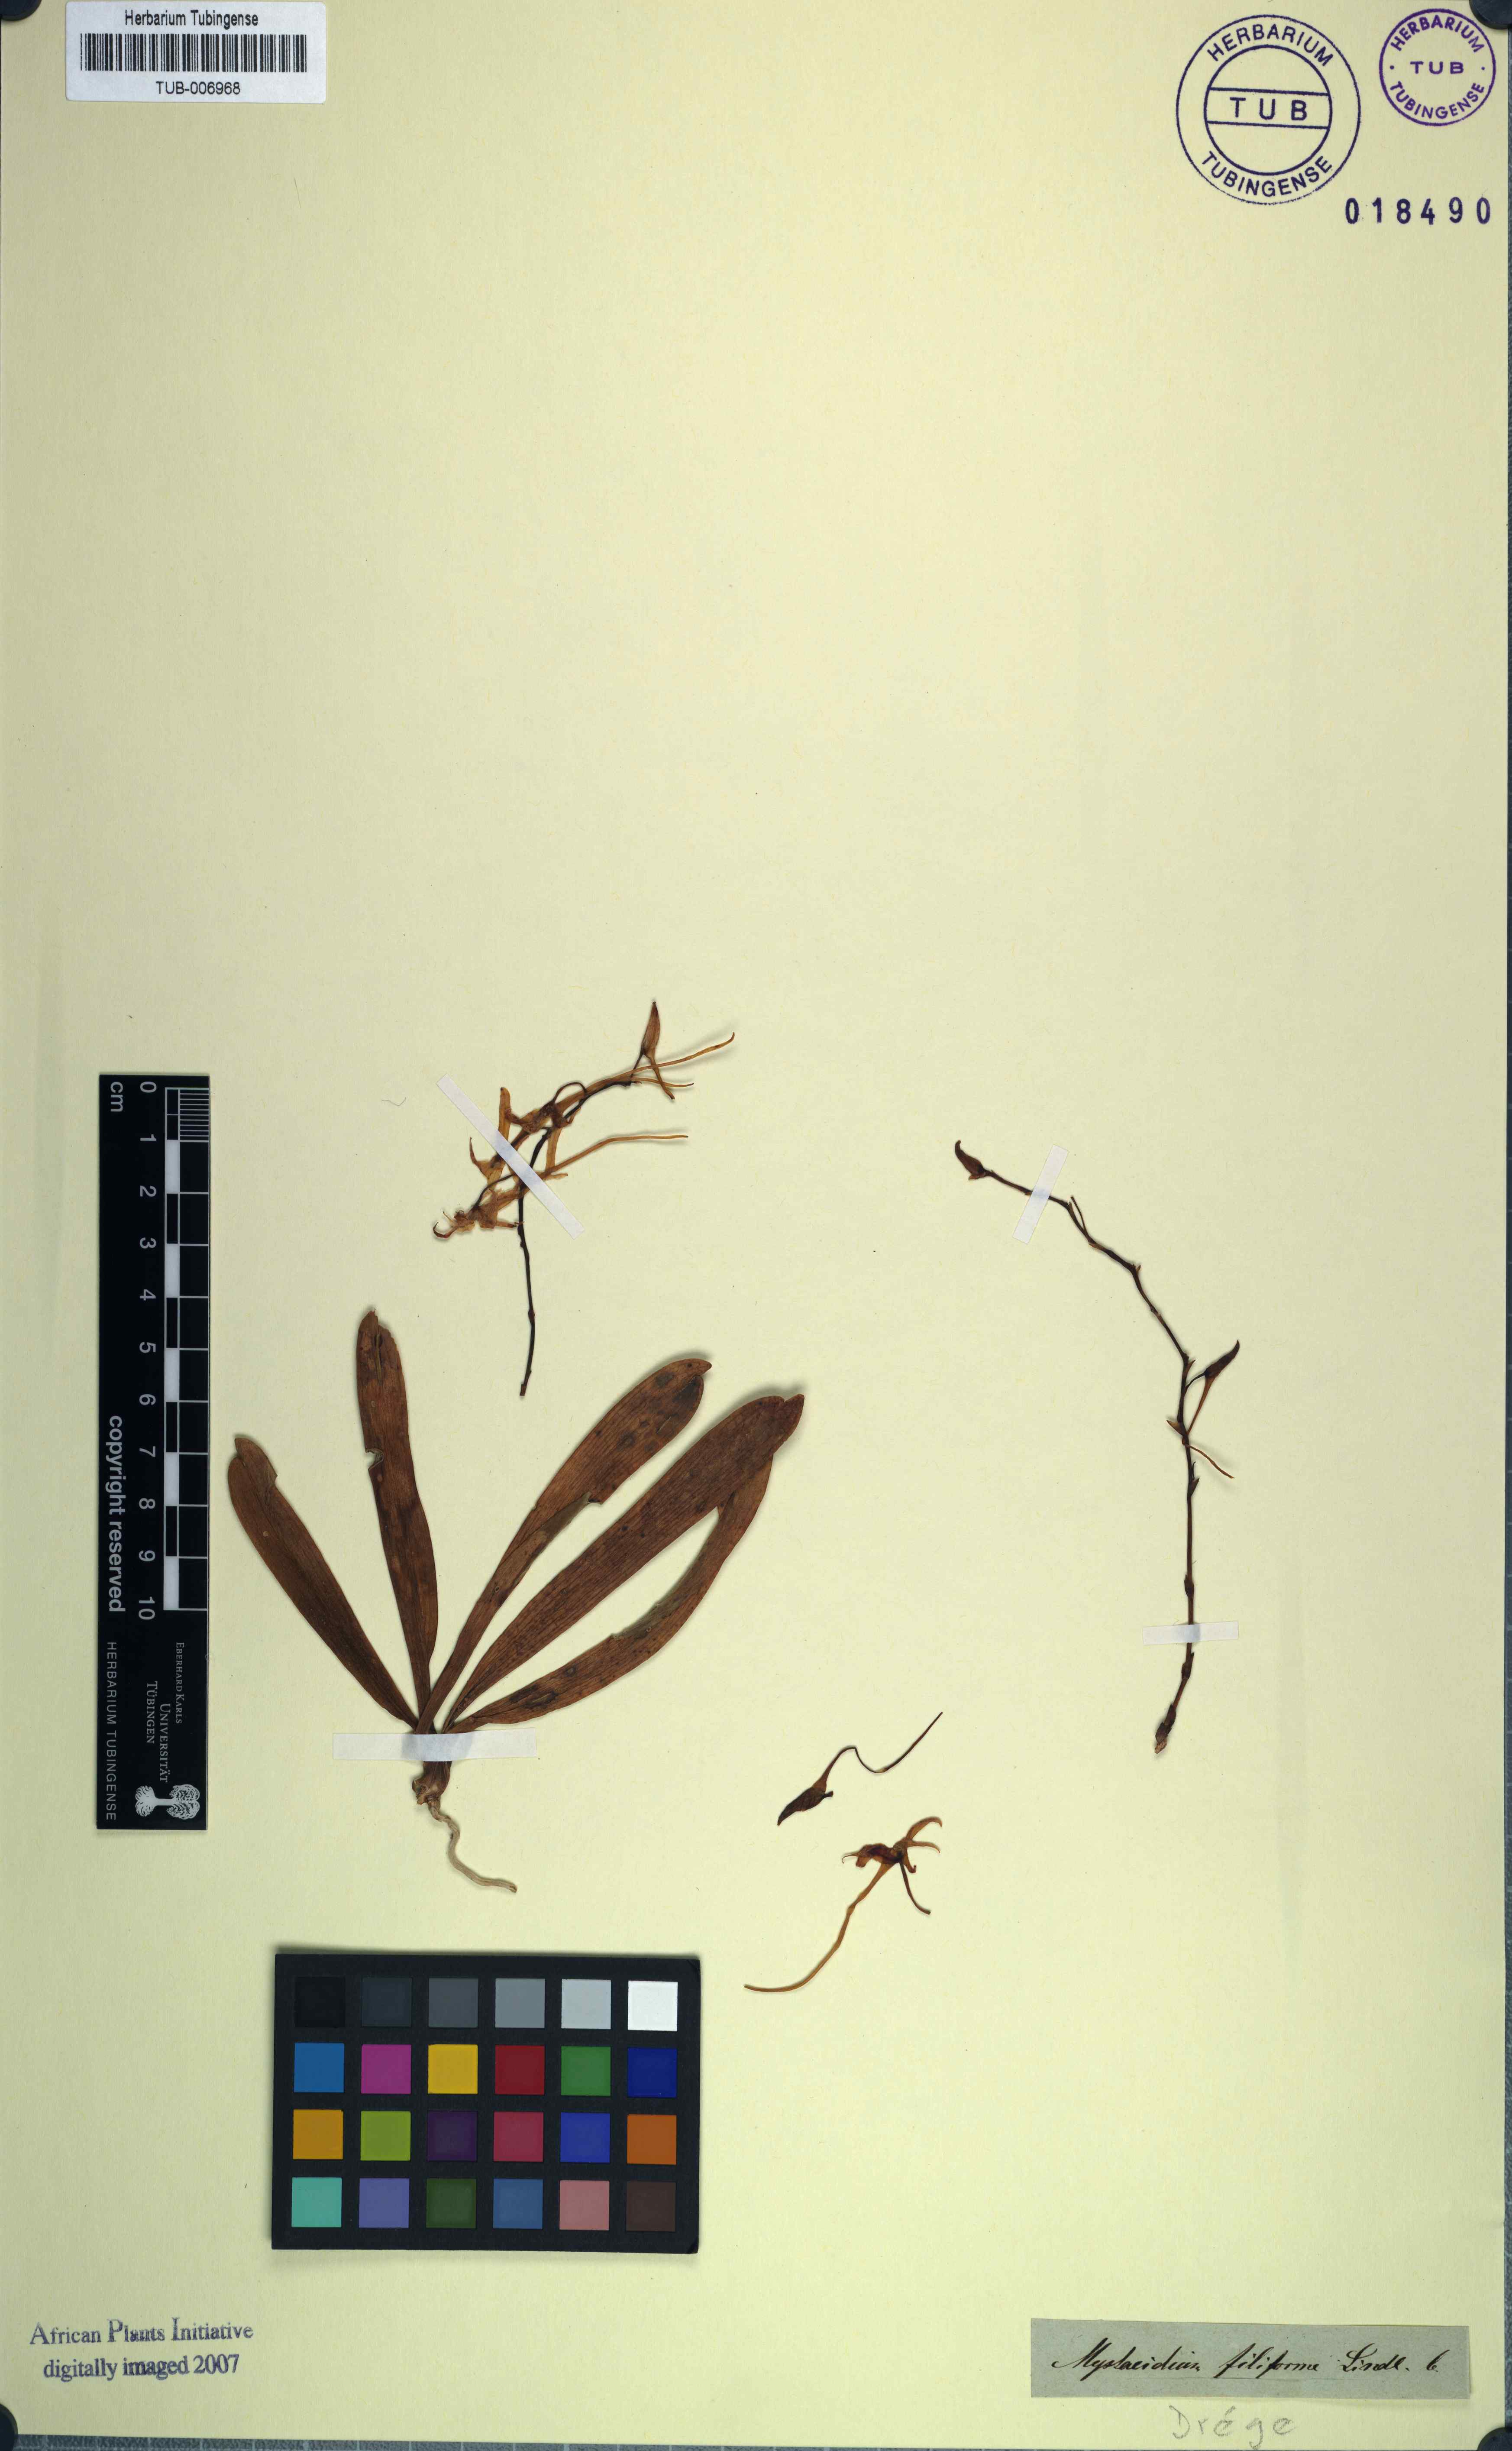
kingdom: Plantae
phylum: Tracheophyta
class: Liliopsida
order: Asparagales
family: Orchidaceae
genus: Mystacidium
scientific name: Mystacidium capense
